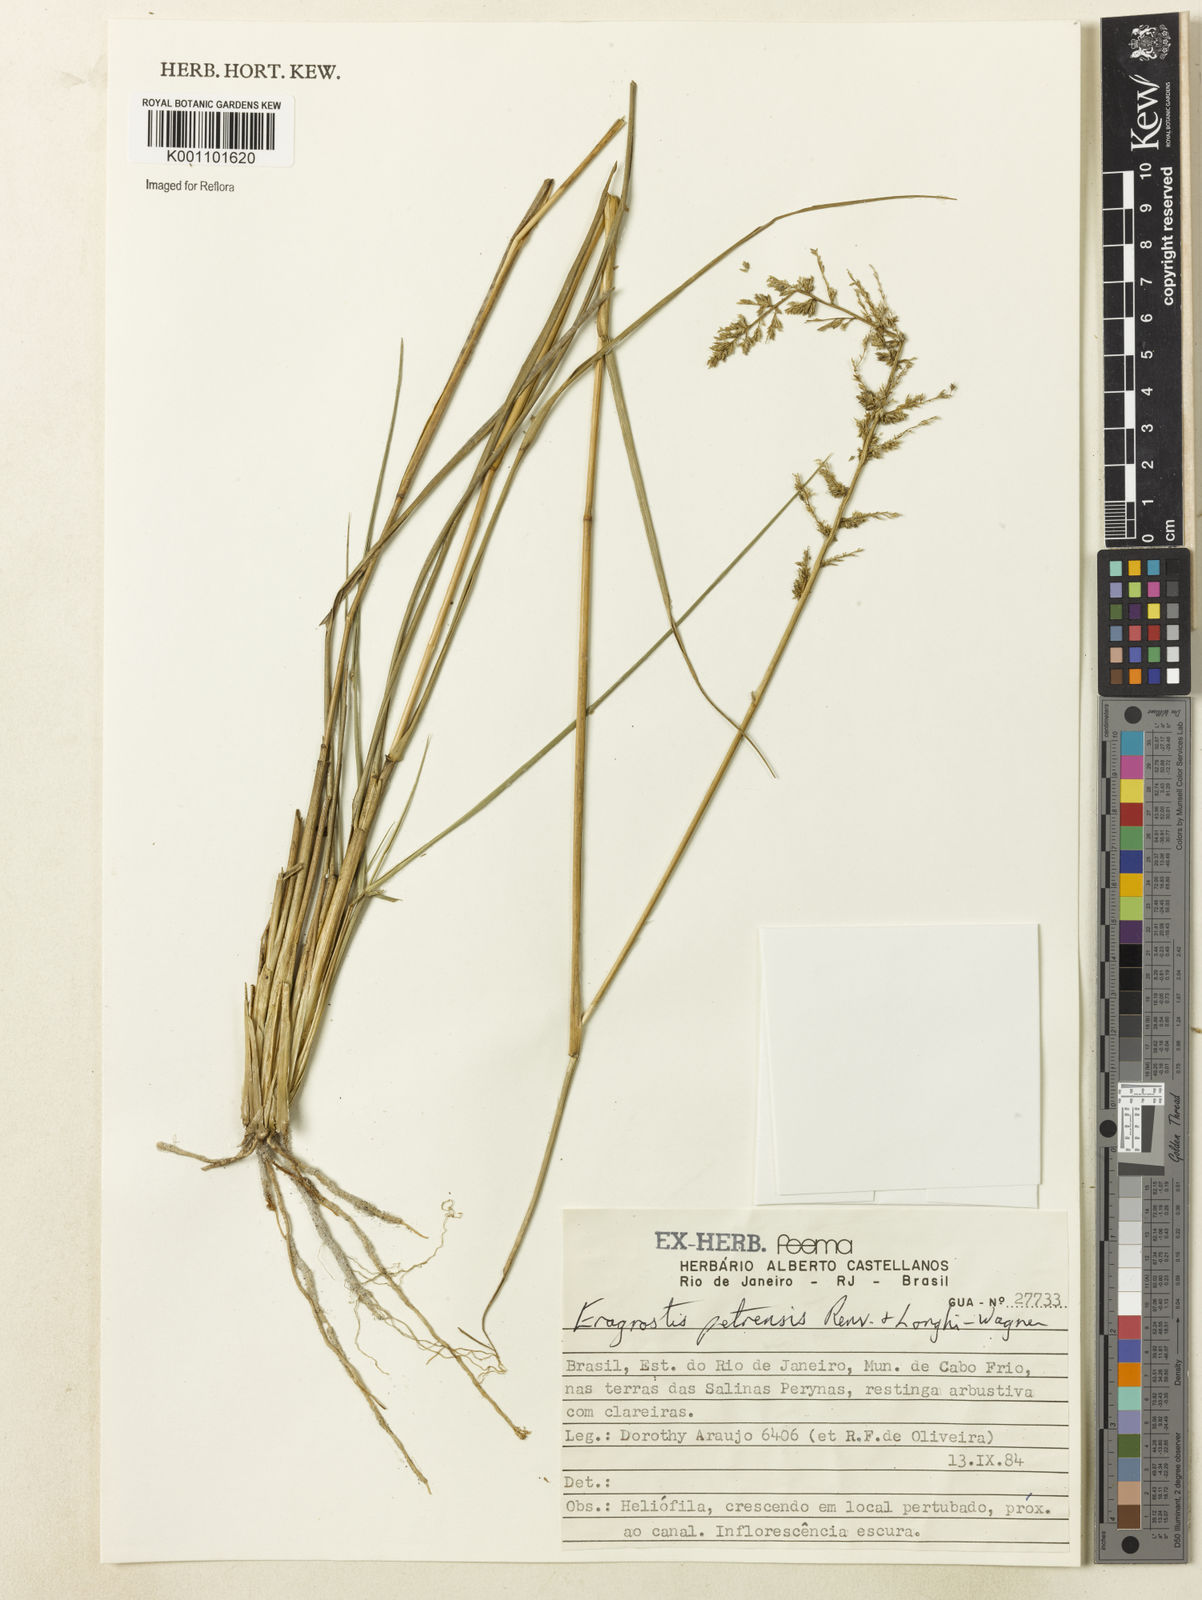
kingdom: Plantae
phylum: Tracheophyta
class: Liliopsida
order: Poales
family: Poaceae
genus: Eragrostis
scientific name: Eragrostis petrensis
